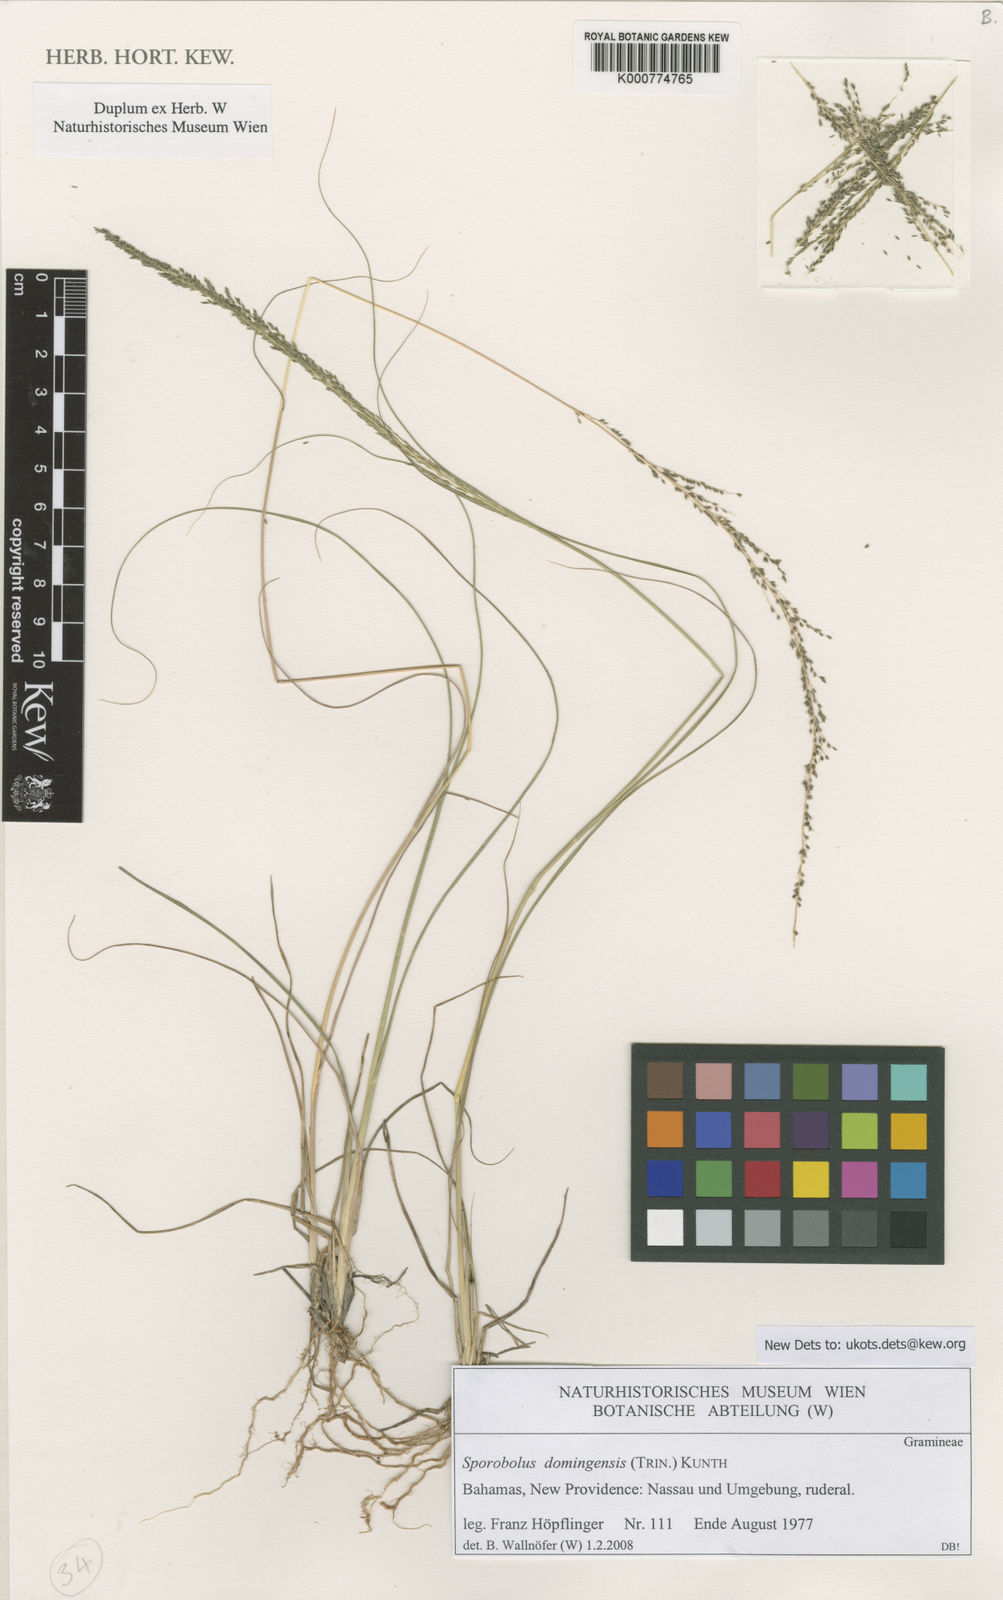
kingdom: Plantae
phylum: Tracheophyta
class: Liliopsida
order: Poales
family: Poaceae
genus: Sporobolus
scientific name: Sporobolus domingensis
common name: Coral dropseed
